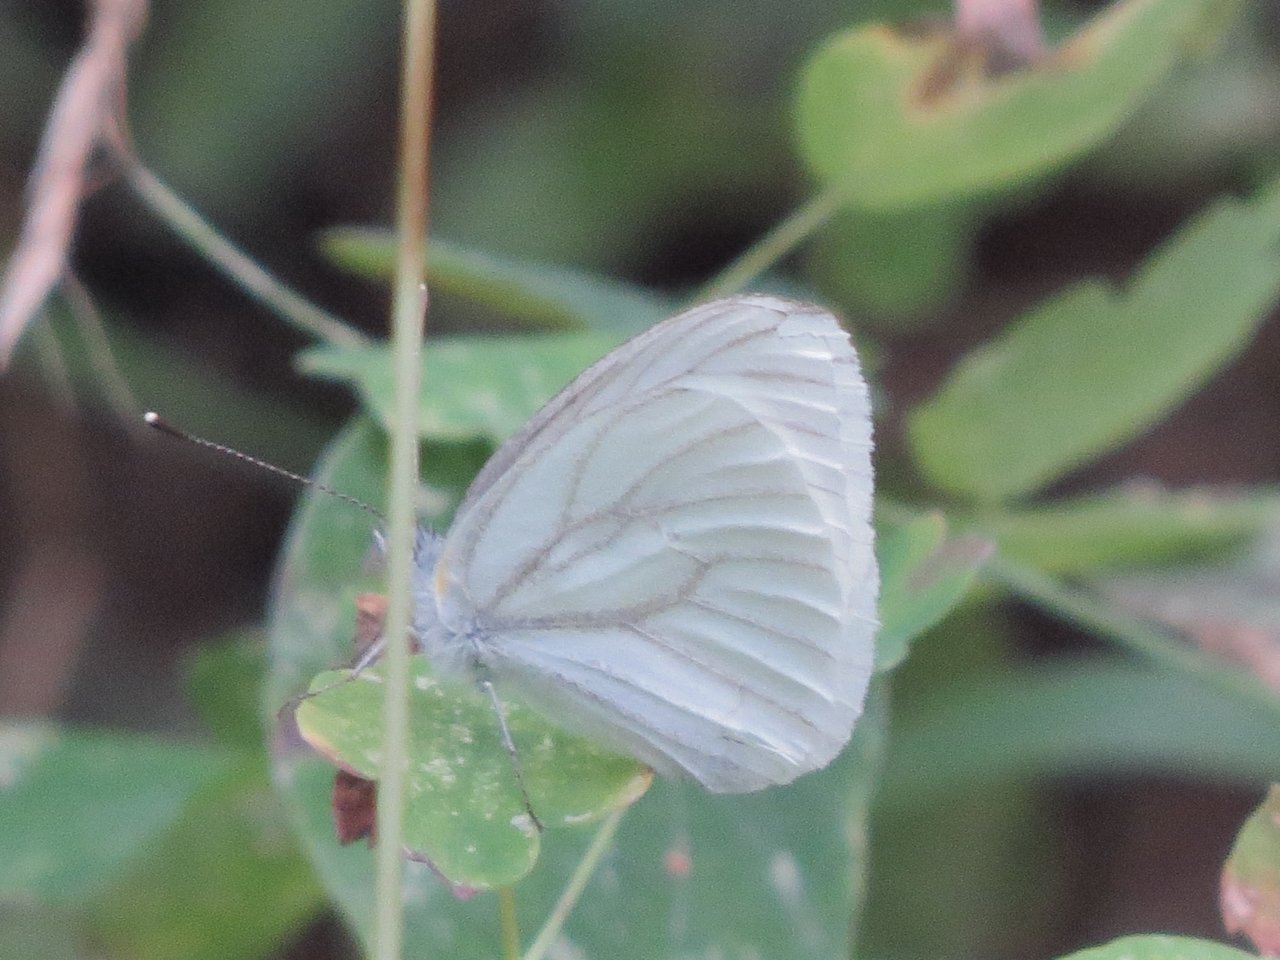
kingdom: Animalia
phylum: Arthropoda
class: Insecta
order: Lepidoptera
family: Pieridae
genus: Pieris
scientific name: Pieris oleracea
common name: Mustard White
